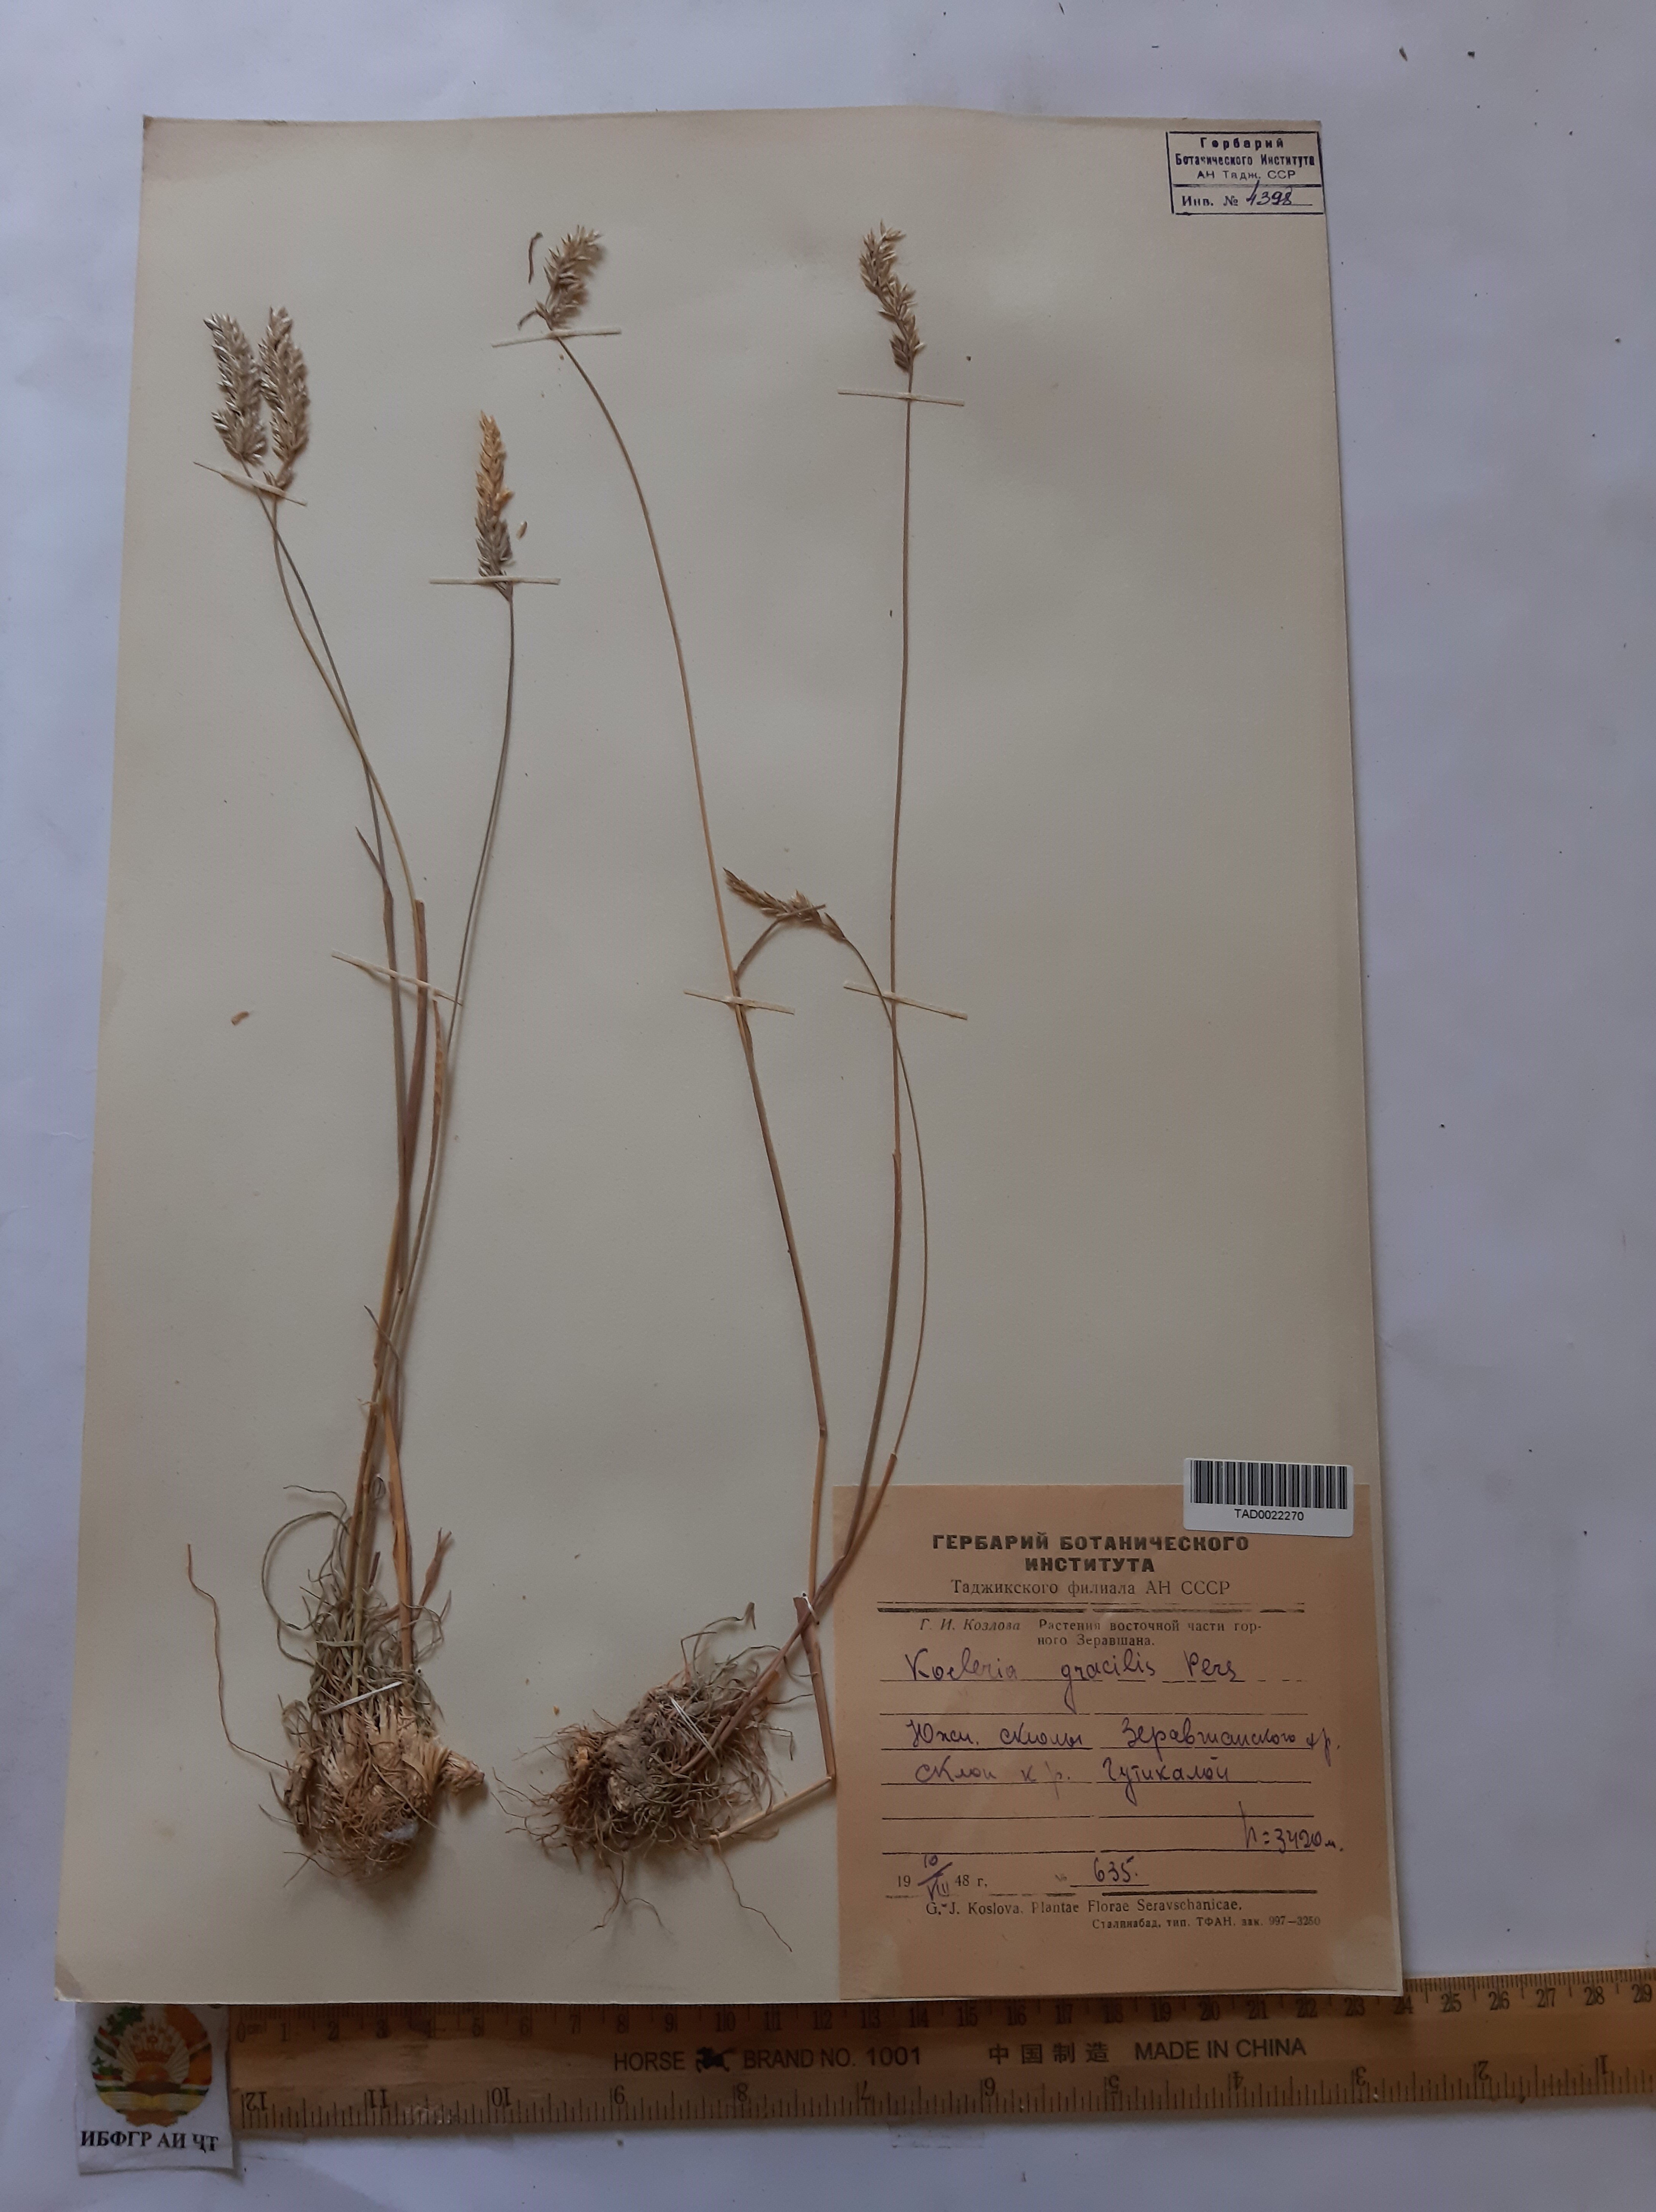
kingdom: Plantae
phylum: Tracheophyta
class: Liliopsida
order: Poales
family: Poaceae
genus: Koeleria
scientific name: Koeleria macrantha
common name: Crested hair-grass
